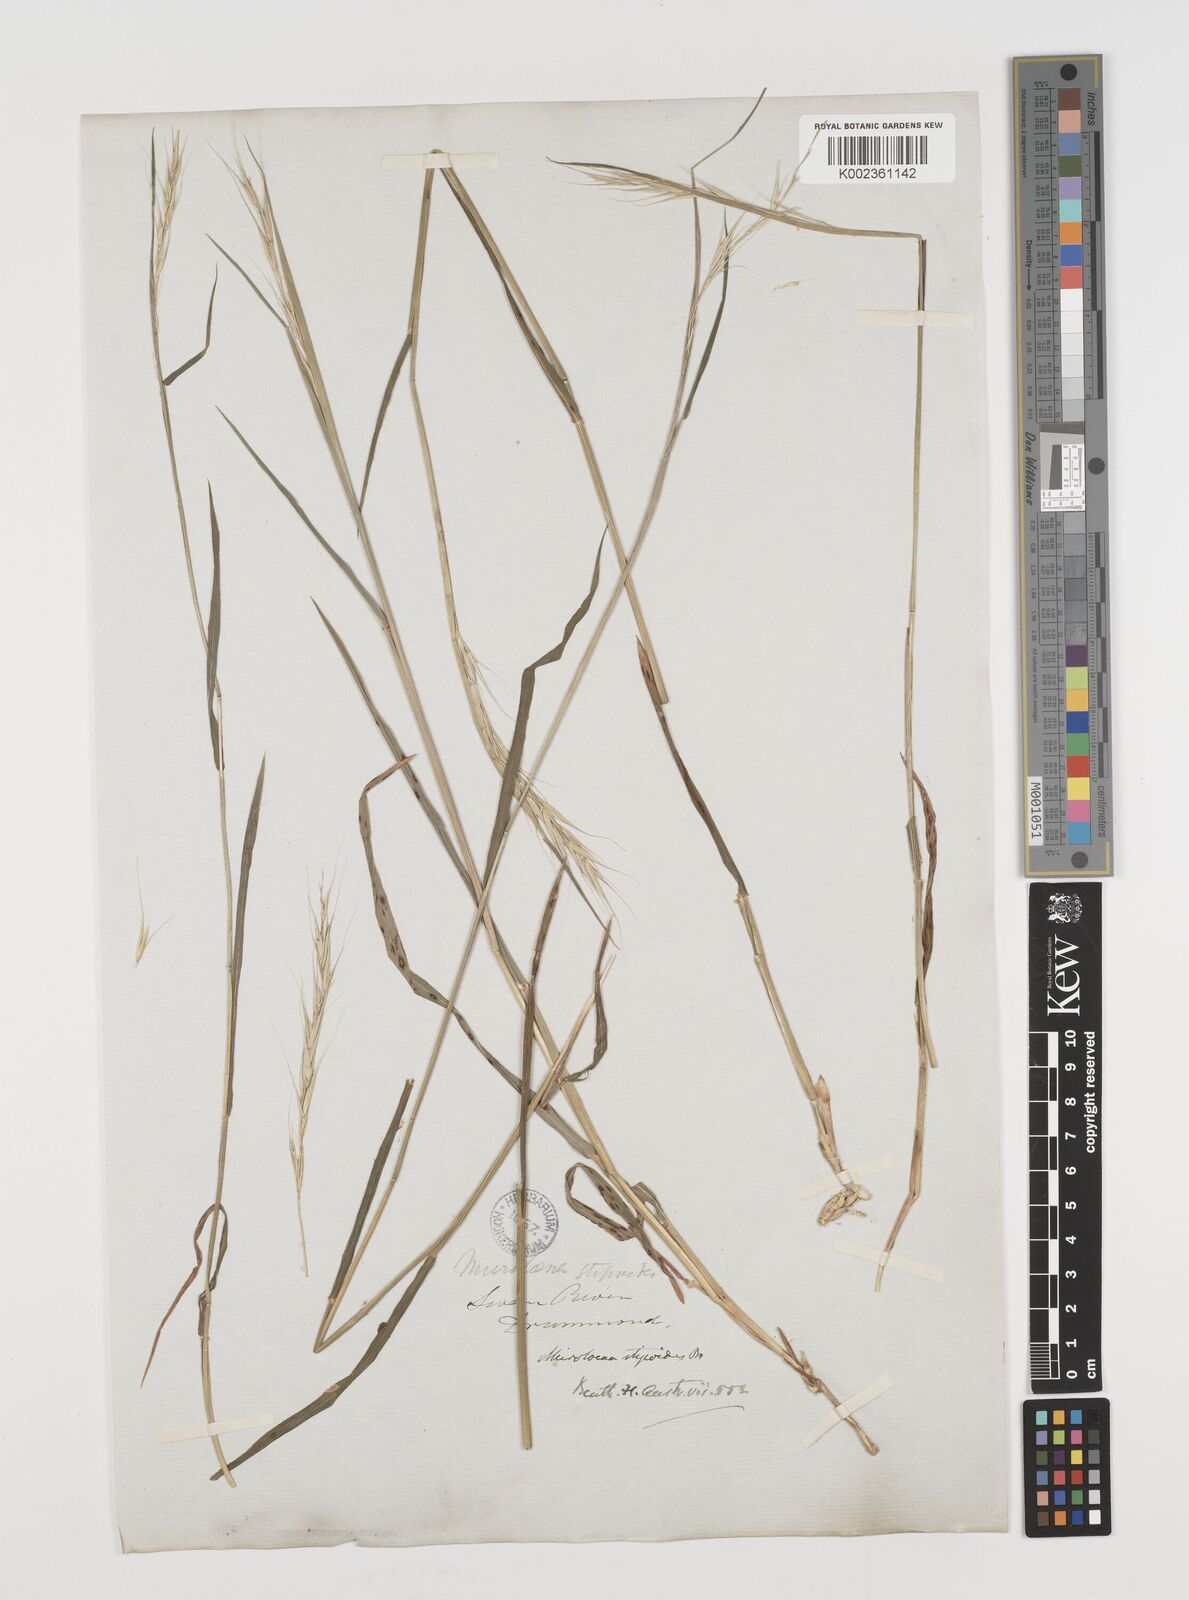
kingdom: Plantae
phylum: Tracheophyta
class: Liliopsida
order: Poales
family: Poaceae
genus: Microlaena
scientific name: Microlaena stipoides
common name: Meadow ricegrass
